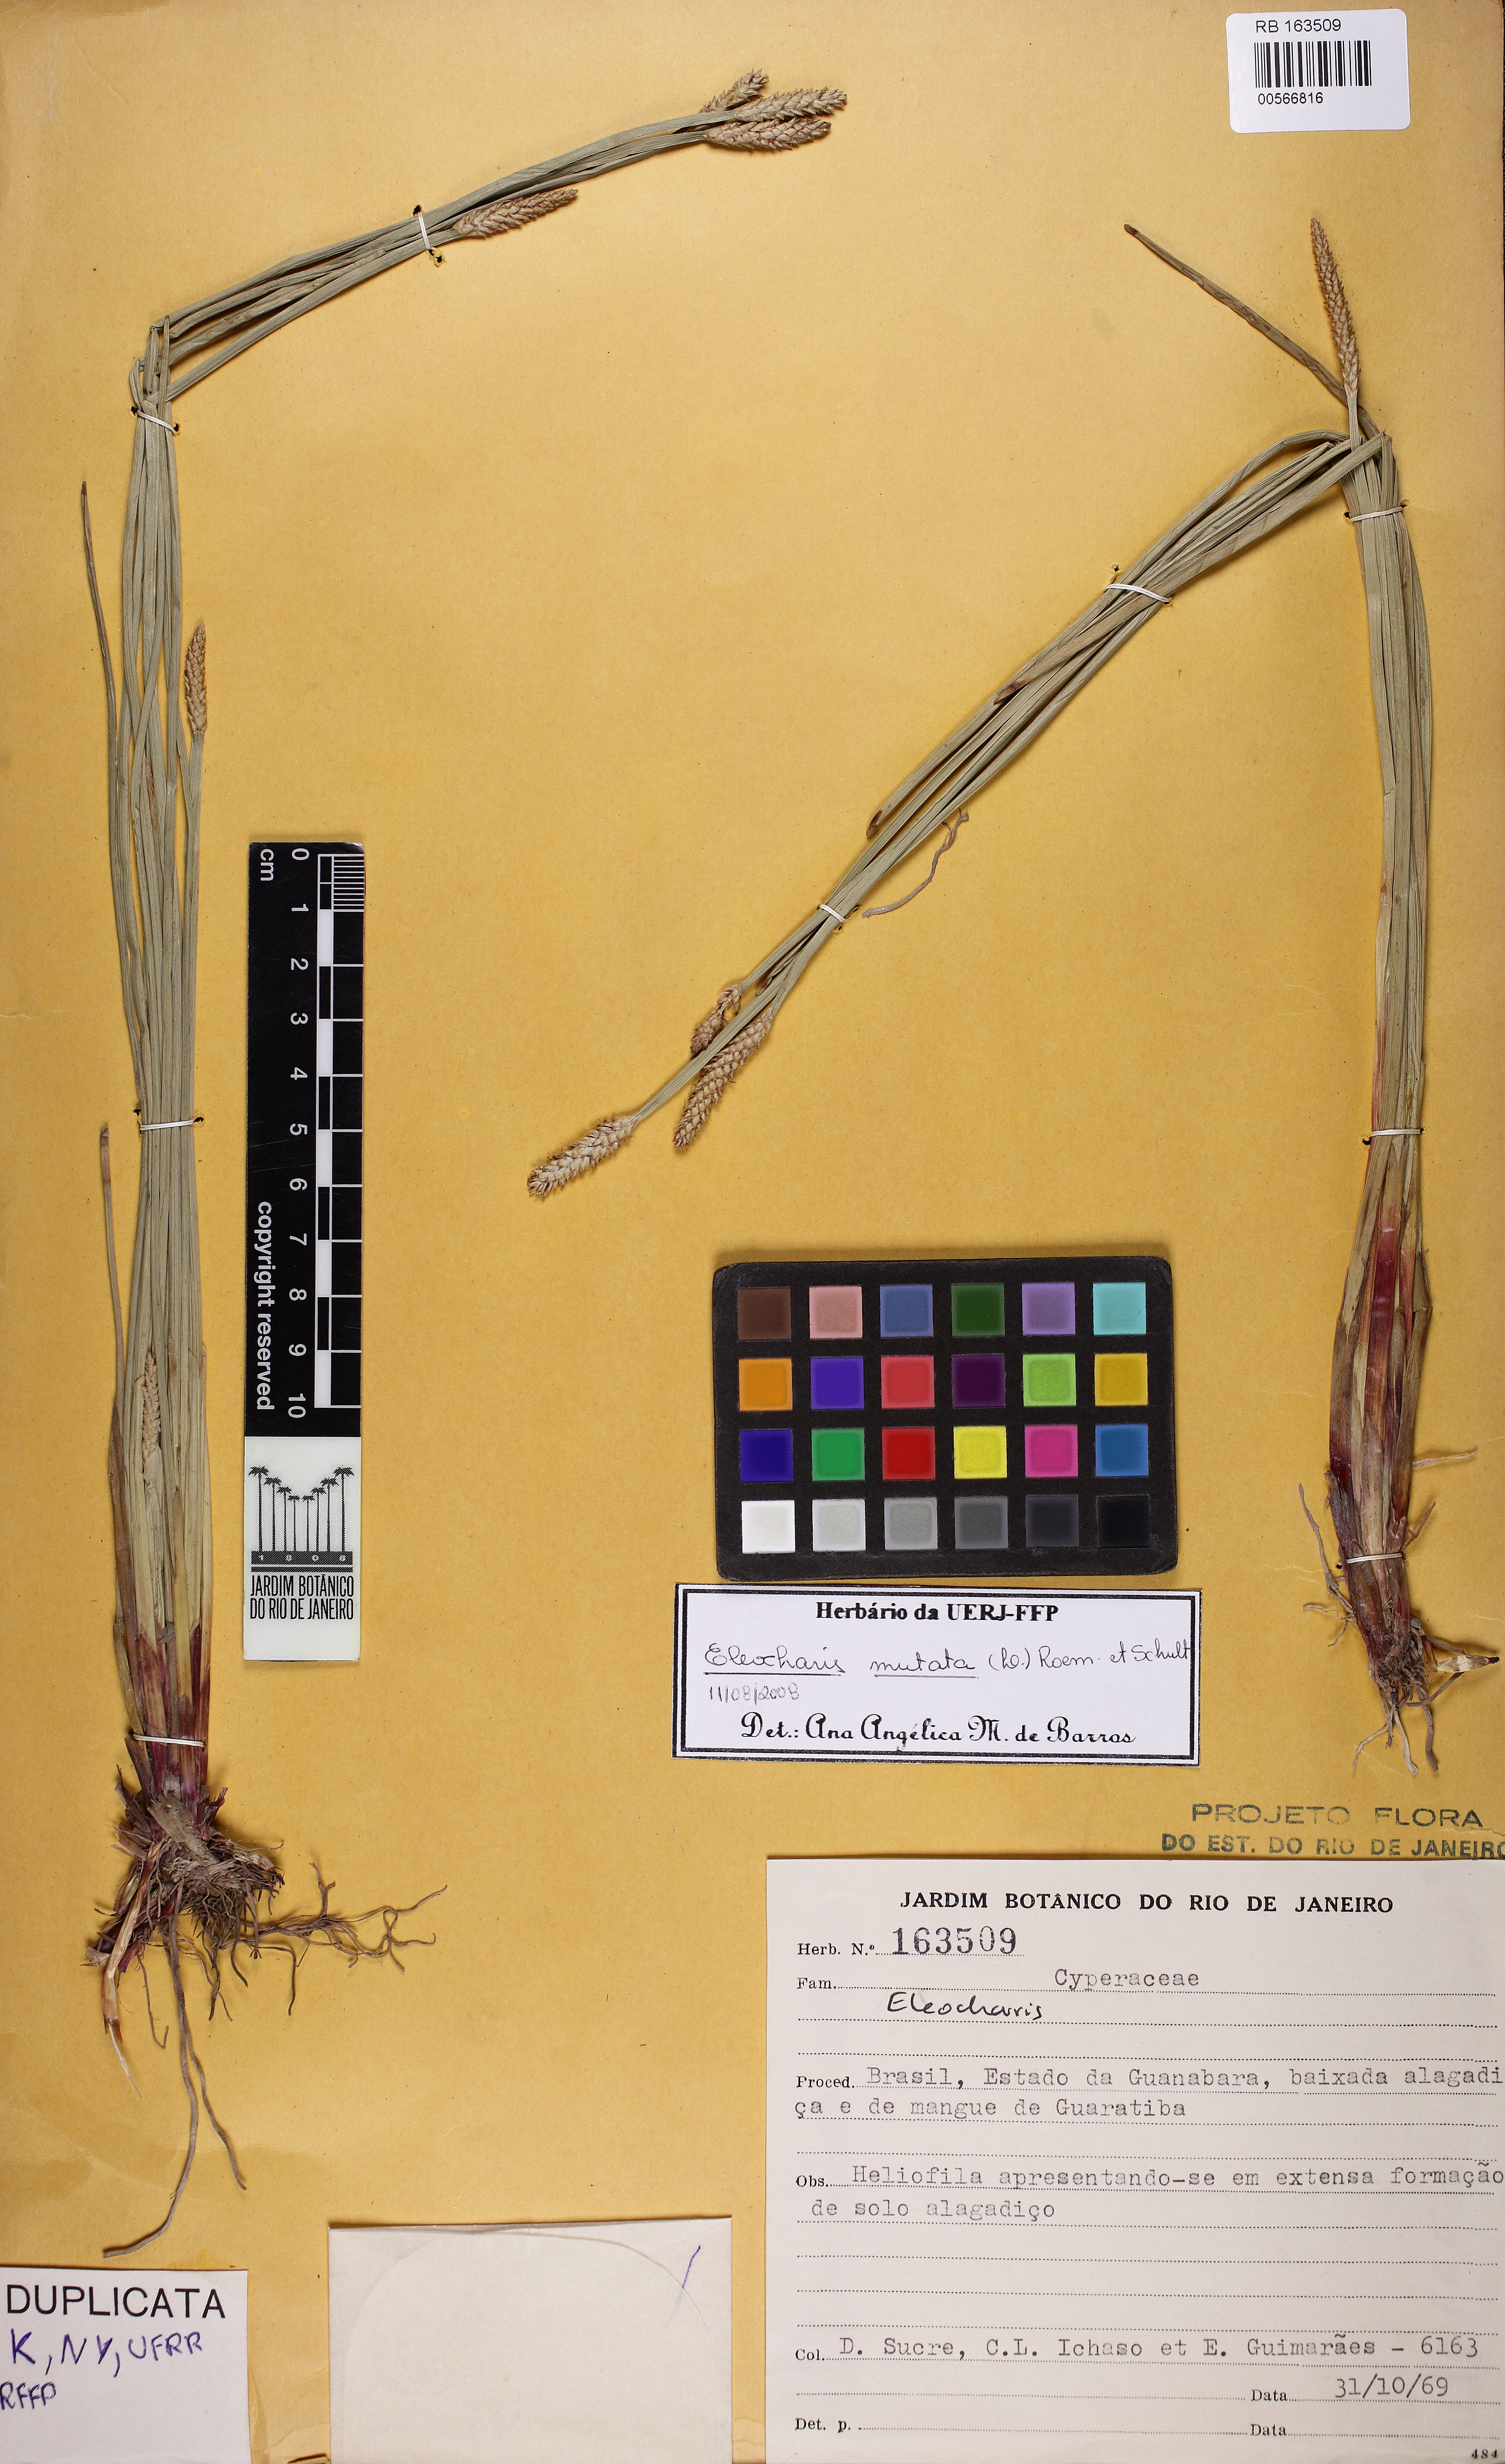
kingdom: Plantae
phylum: Tracheophyta
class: Liliopsida
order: Poales
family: Cyperaceae
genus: Eleocharis
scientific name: Eleocharis mutata
